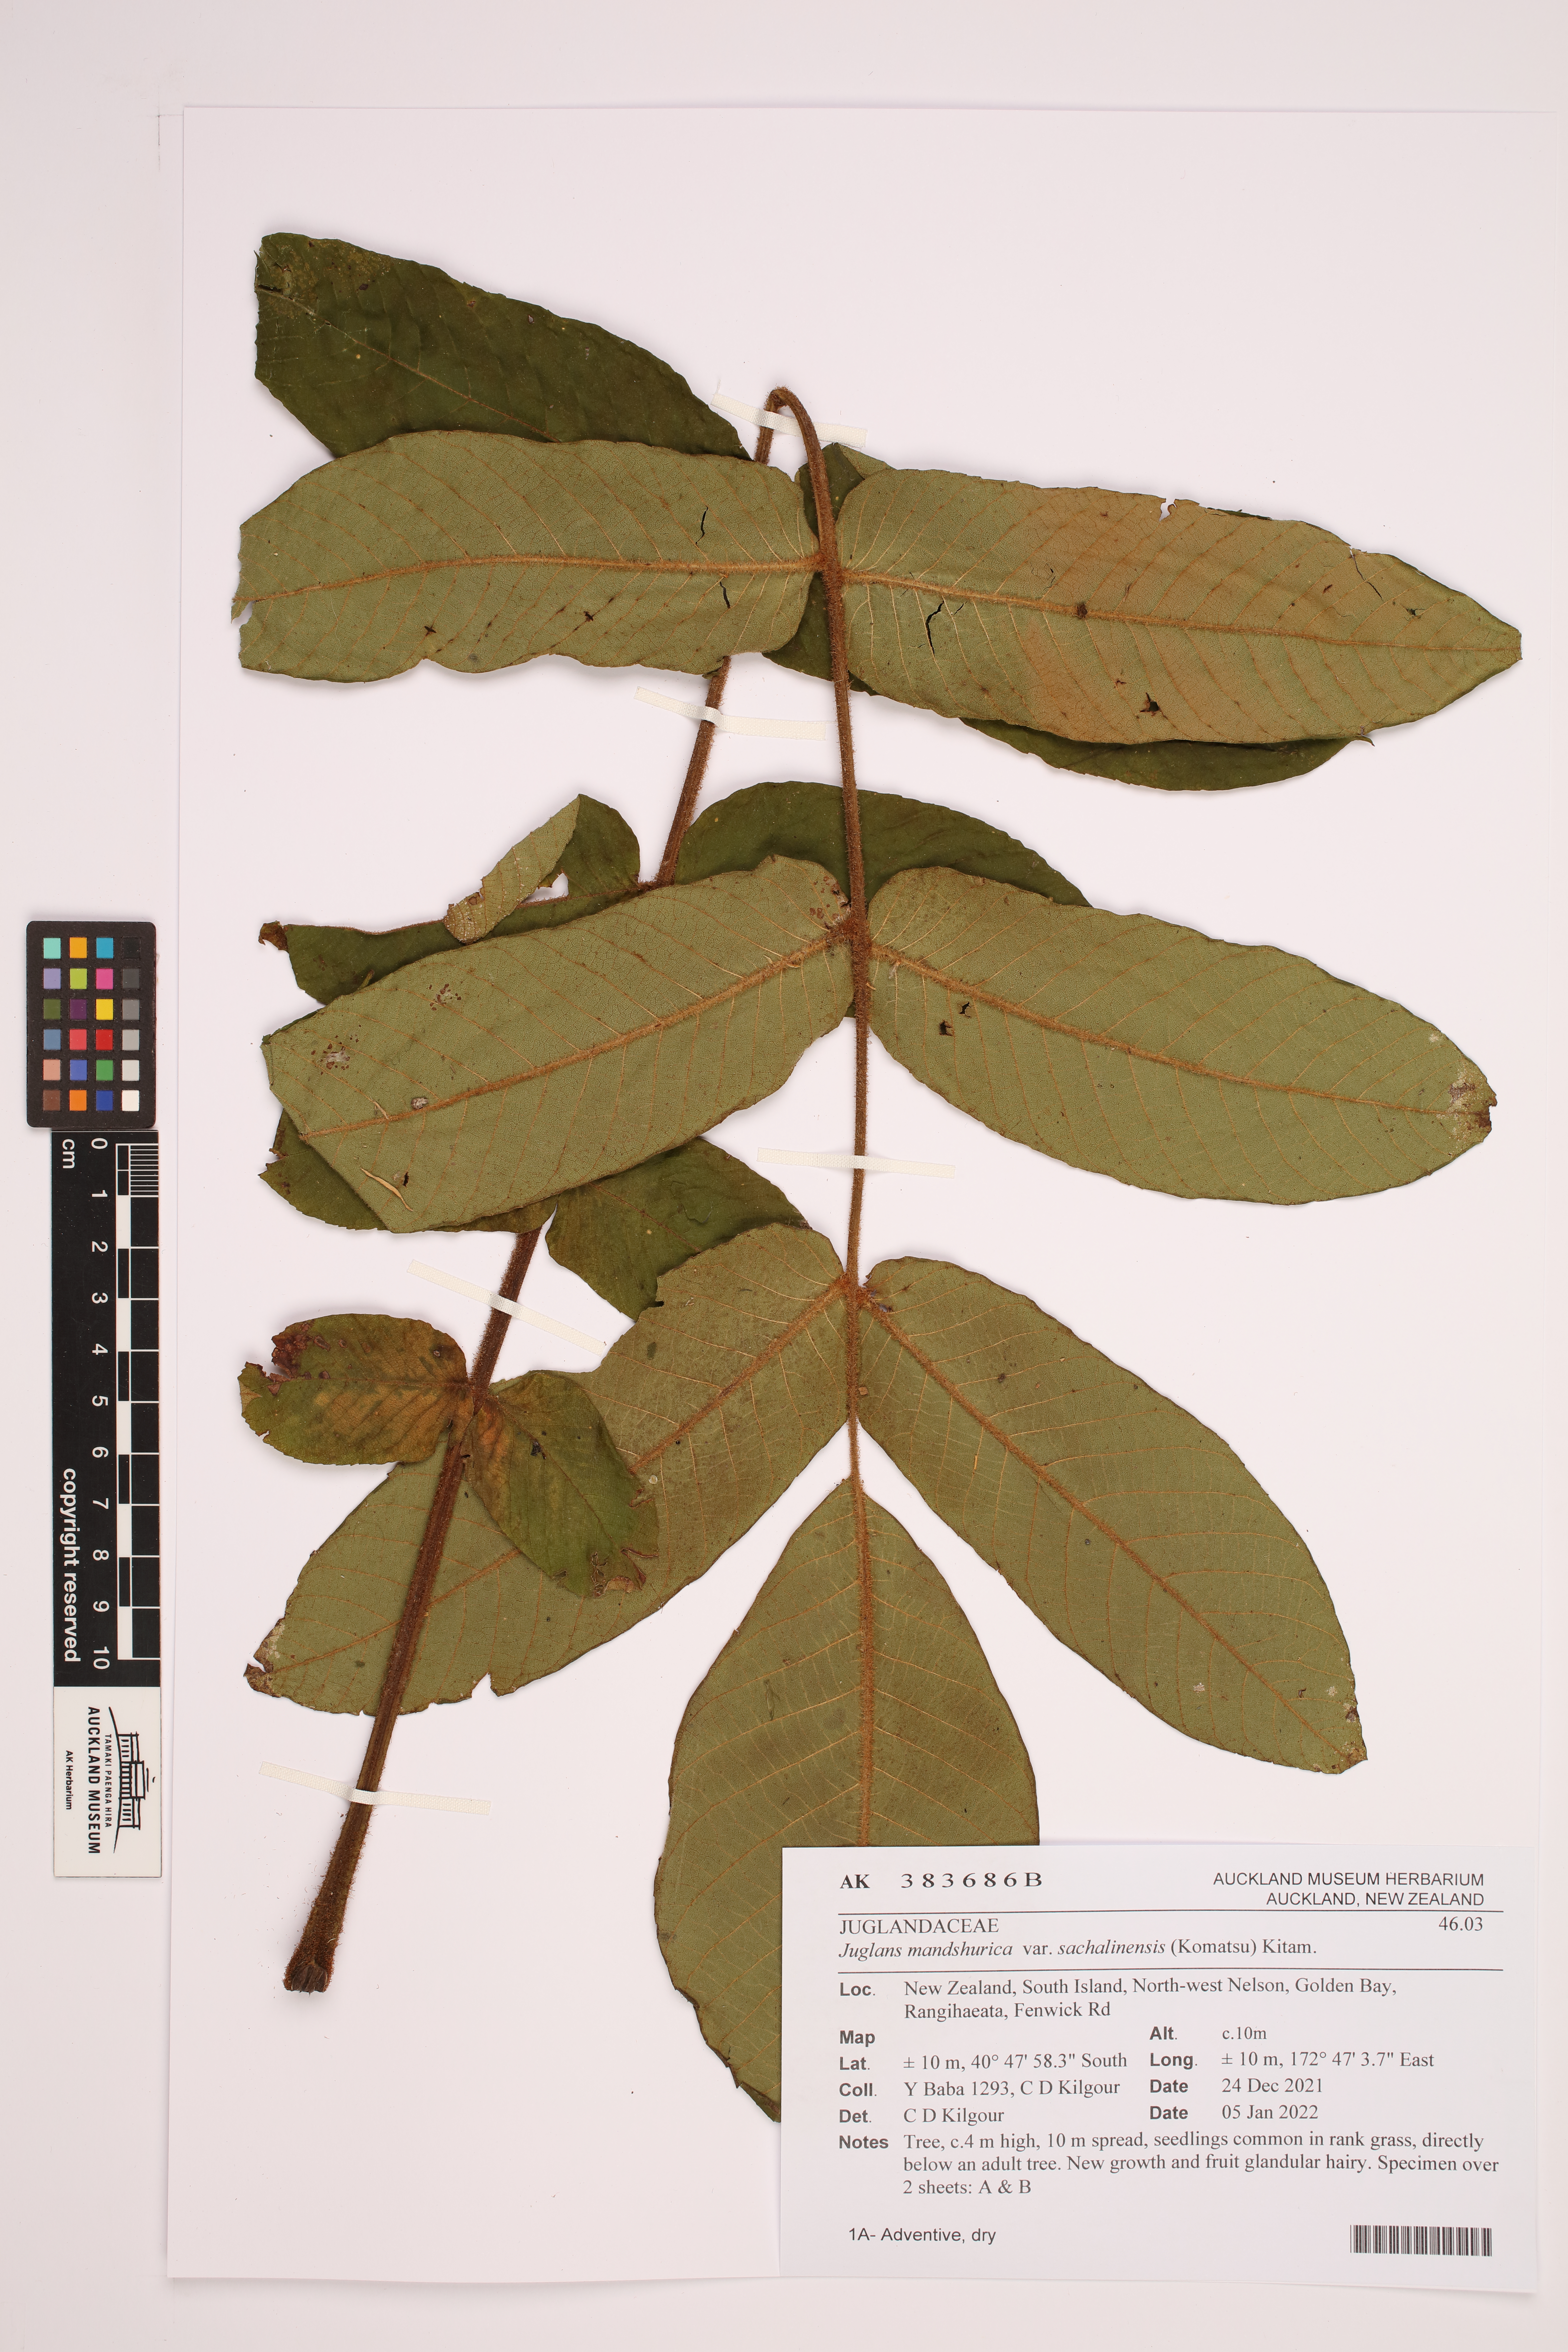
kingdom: Plantae
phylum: Tracheophyta
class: Magnoliopsida
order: Fagales
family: Juglandaceae
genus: Juglans
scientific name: Juglans ailantifolia
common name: Japanese walnut
